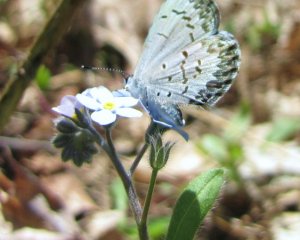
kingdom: Animalia
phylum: Arthropoda
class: Insecta
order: Lepidoptera
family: Lycaenidae
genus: Celastrina
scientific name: Celastrina lucia
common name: Northern Spring Azure
